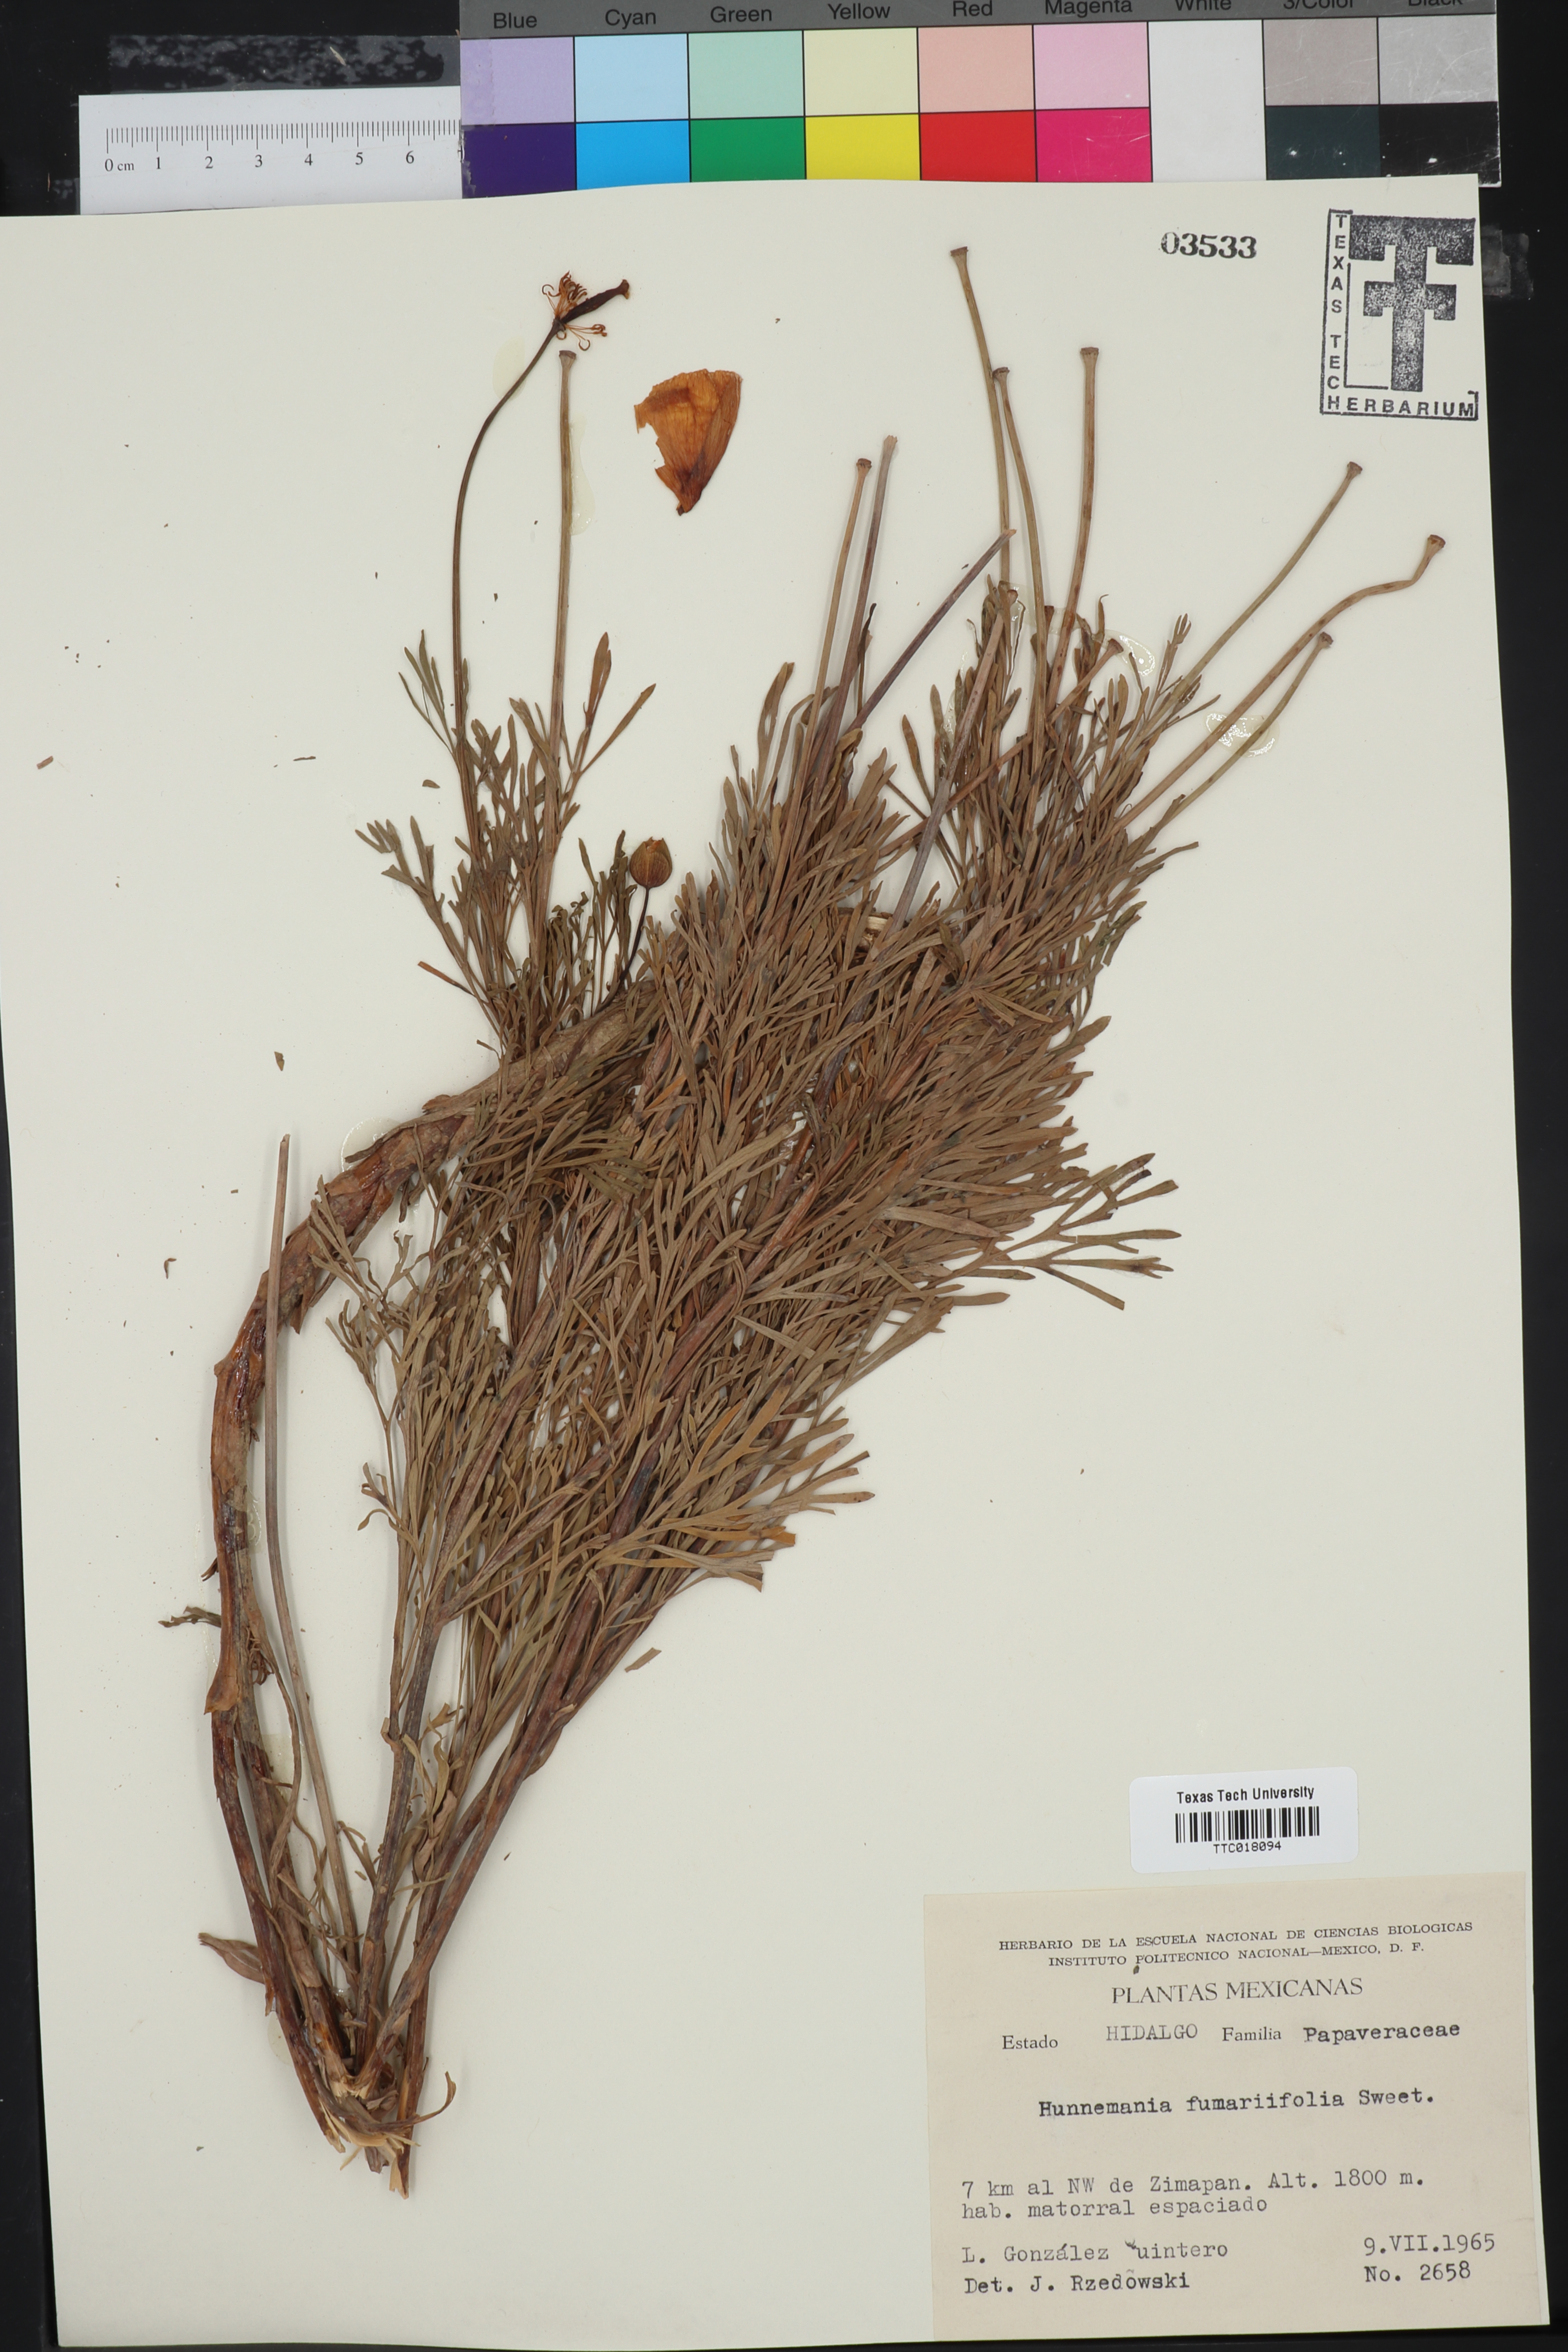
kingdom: Plantae
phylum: Tracheophyta
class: Magnoliopsida
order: Ranunculales
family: Papaveraceae
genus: Hunnemannia
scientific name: Hunnemannia fumariifolia
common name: Mexican tulip poppy
